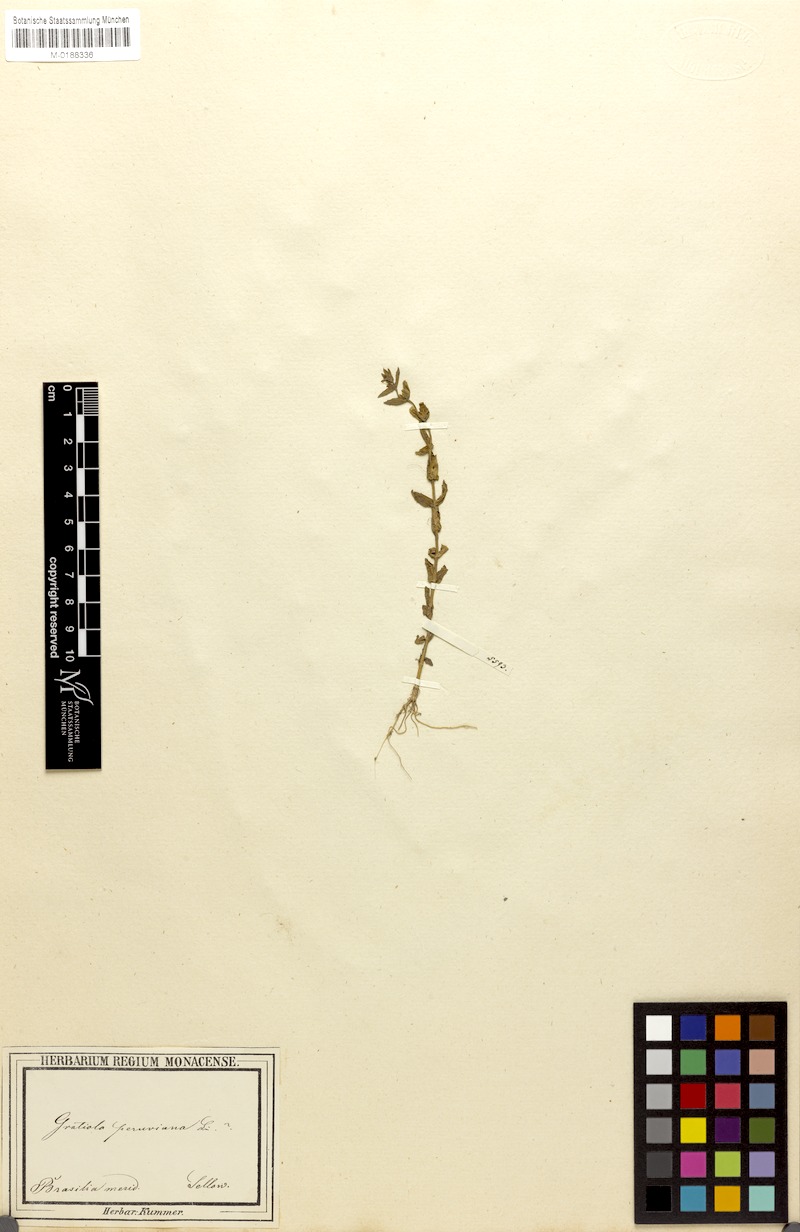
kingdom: Plantae
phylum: Tracheophyta
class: Magnoliopsida
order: Lamiales
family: Plantaginaceae
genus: Gratiola
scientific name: Gratiola peruviana
